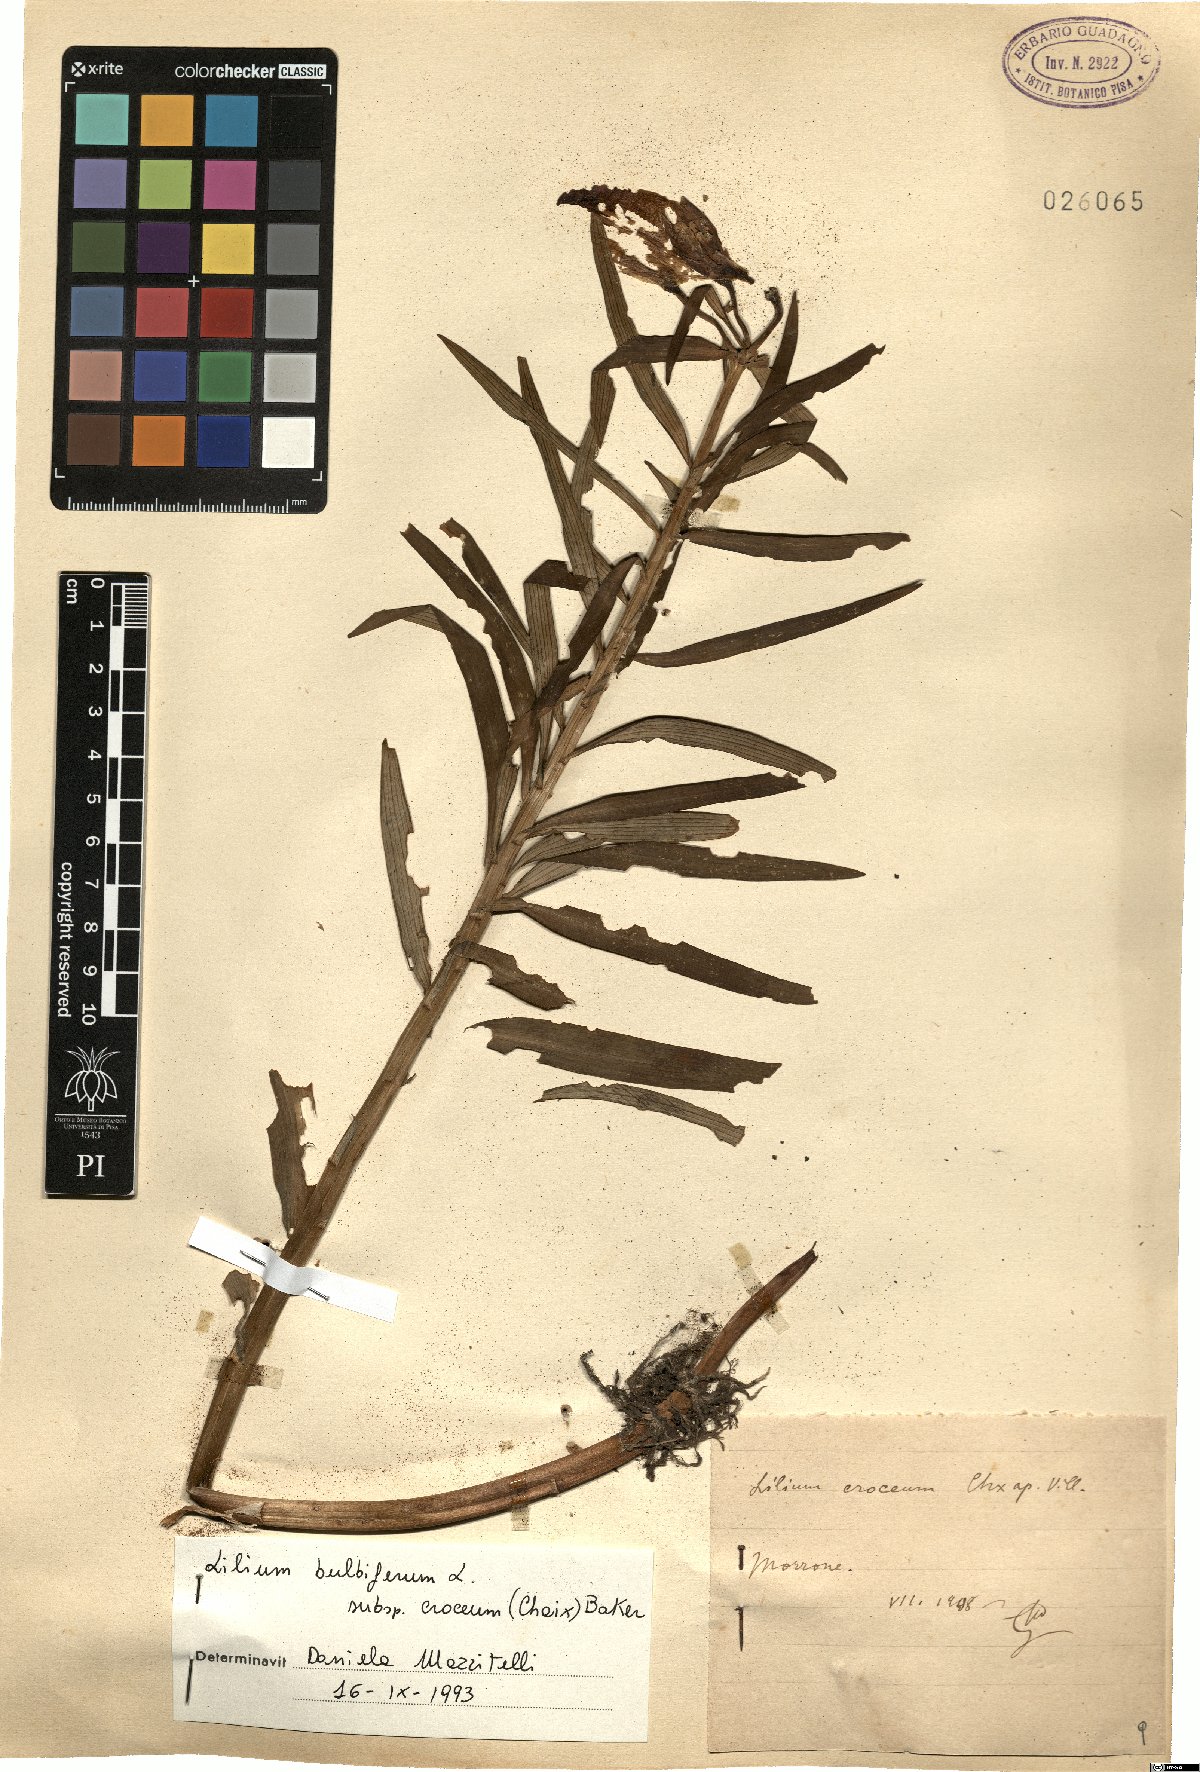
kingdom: Plantae
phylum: Tracheophyta
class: Liliopsida
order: Liliales
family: Liliaceae
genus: Lilium
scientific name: Lilium bulbiferum
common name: Orange lily
